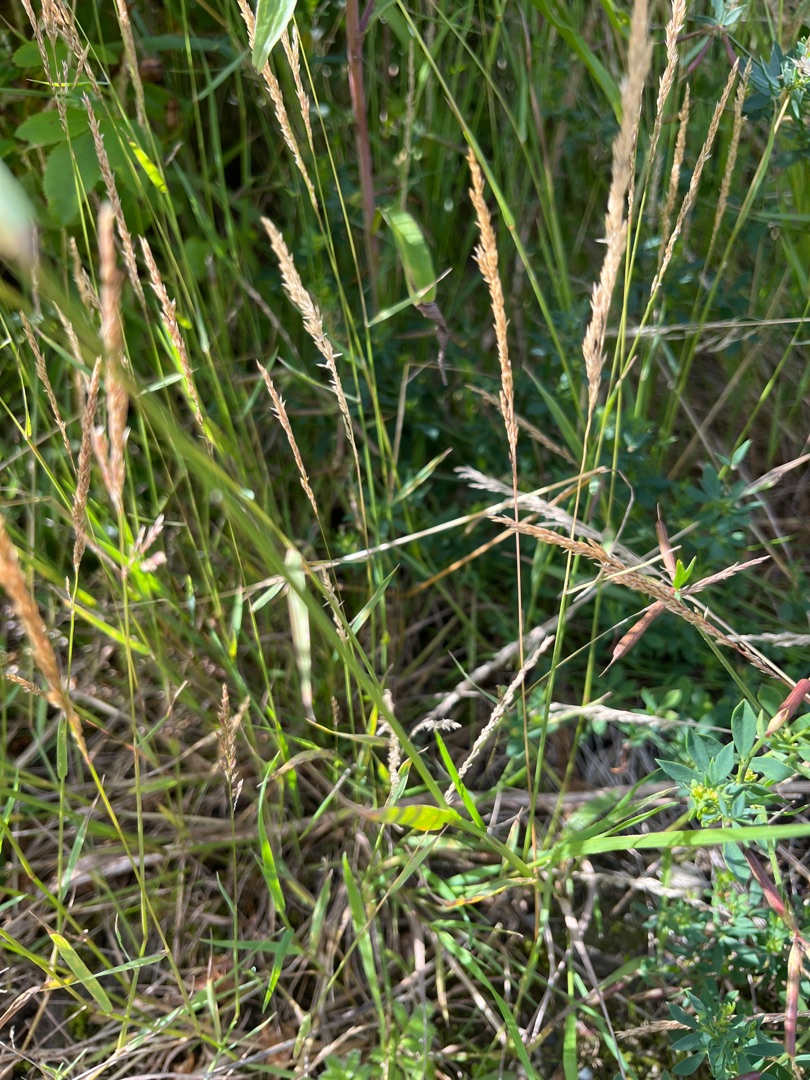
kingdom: Plantae
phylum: Tracheophyta
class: Liliopsida
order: Poales
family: Poaceae
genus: Agrostis
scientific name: Agrostis stolonifera
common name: Kryb-hvene
